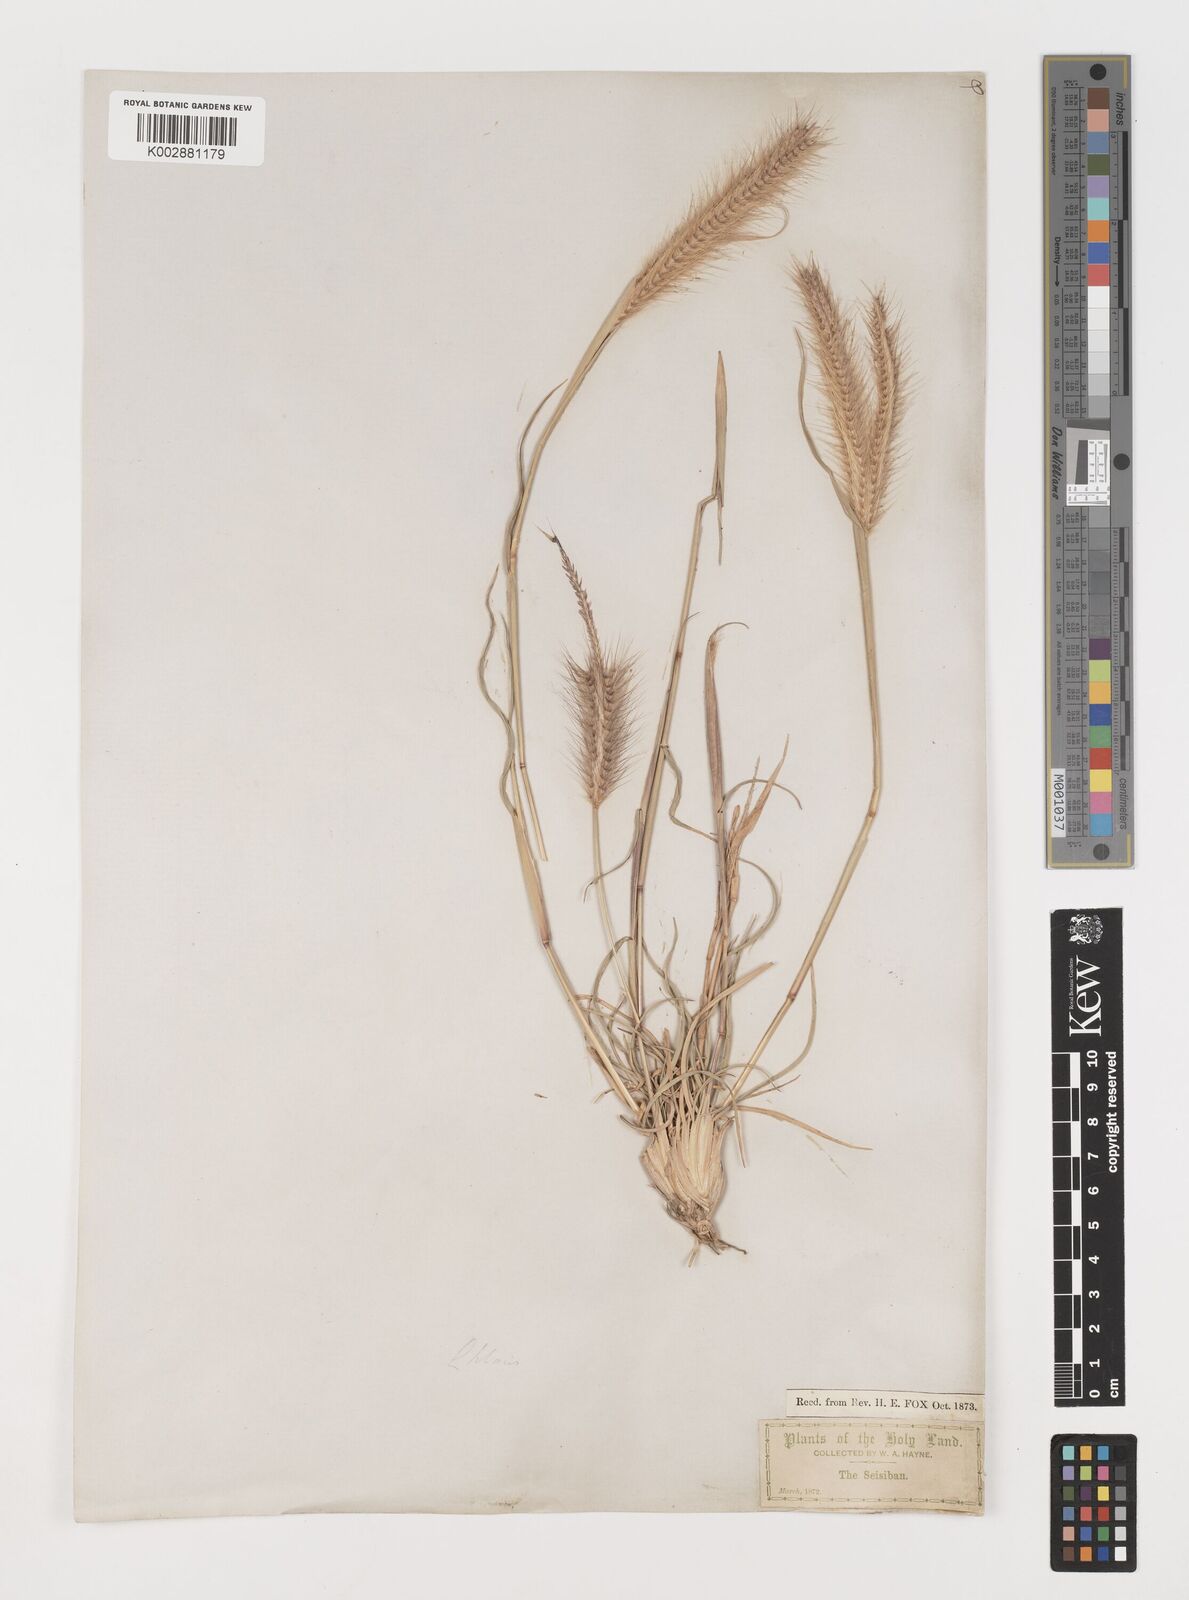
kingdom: Plantae
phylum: Tracheophyta
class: Liliopsida
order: Poales
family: Poaceae
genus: Tetrapogon
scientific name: Tetrapogon villosus
